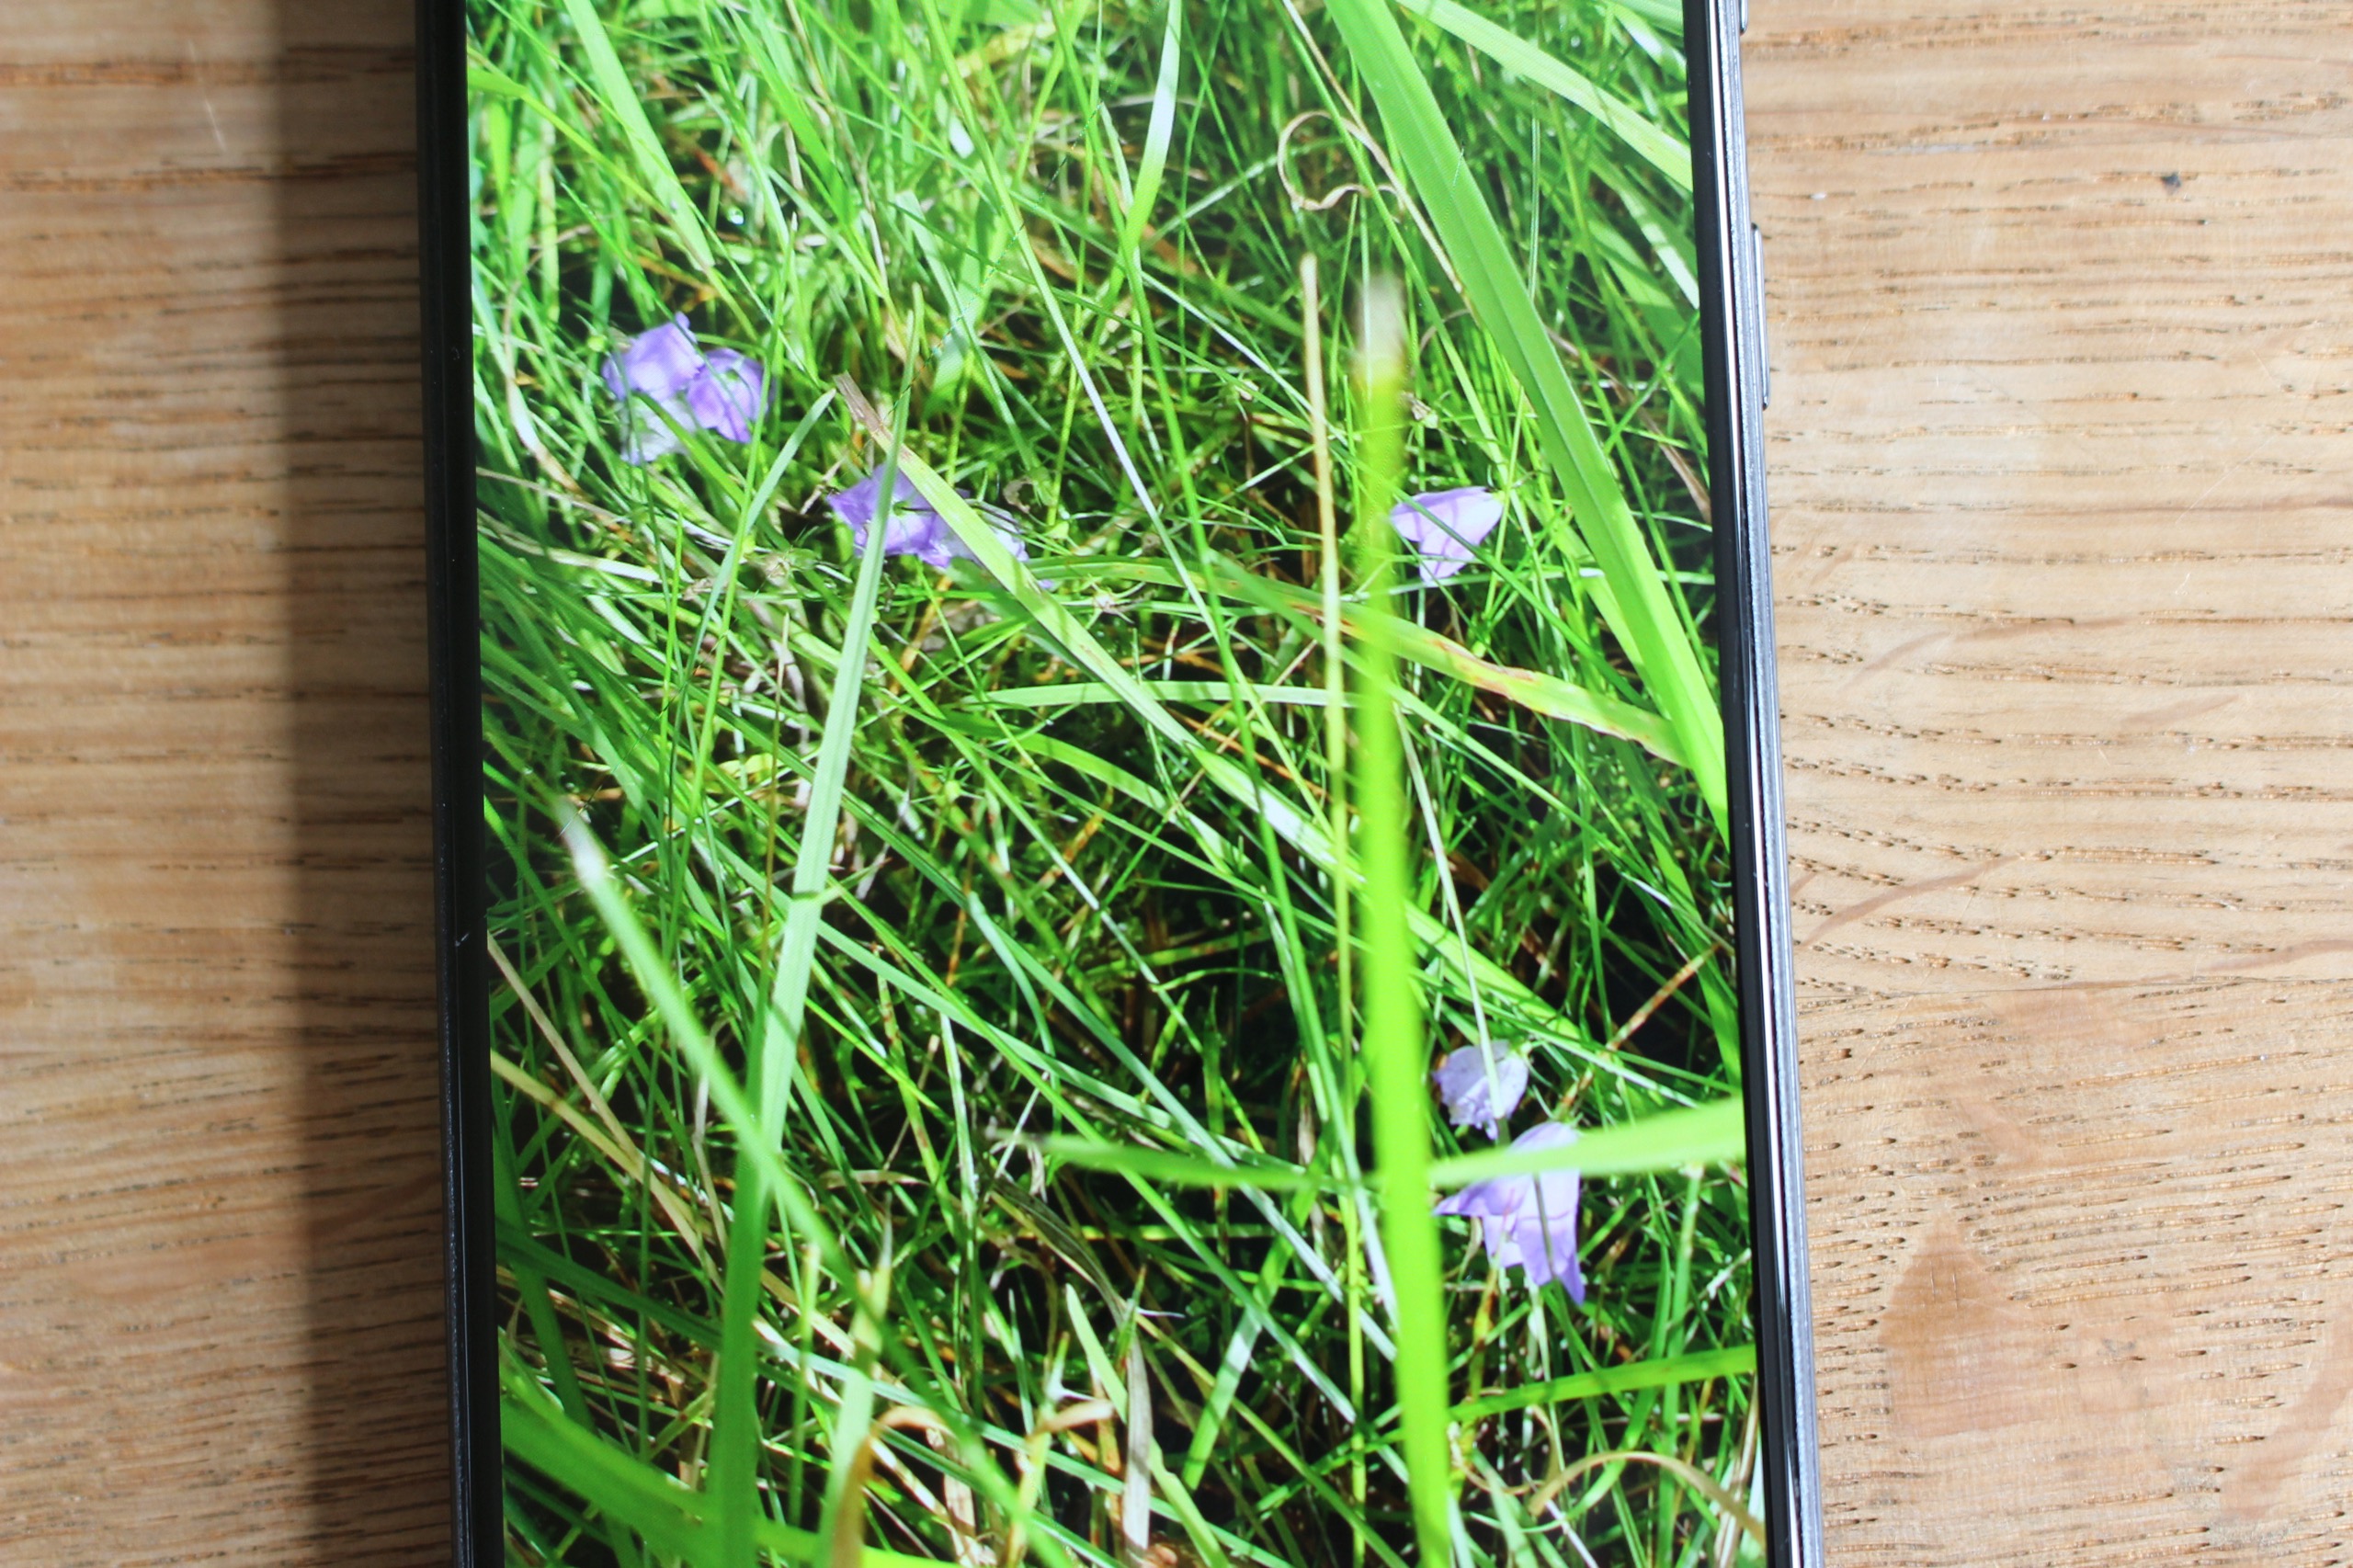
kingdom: Plantae
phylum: Tracheophyta
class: Magnoliopsida
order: Asterales
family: Campanulaceae
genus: Campanula
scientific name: Campanula rotundifolia
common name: Liden klokke
